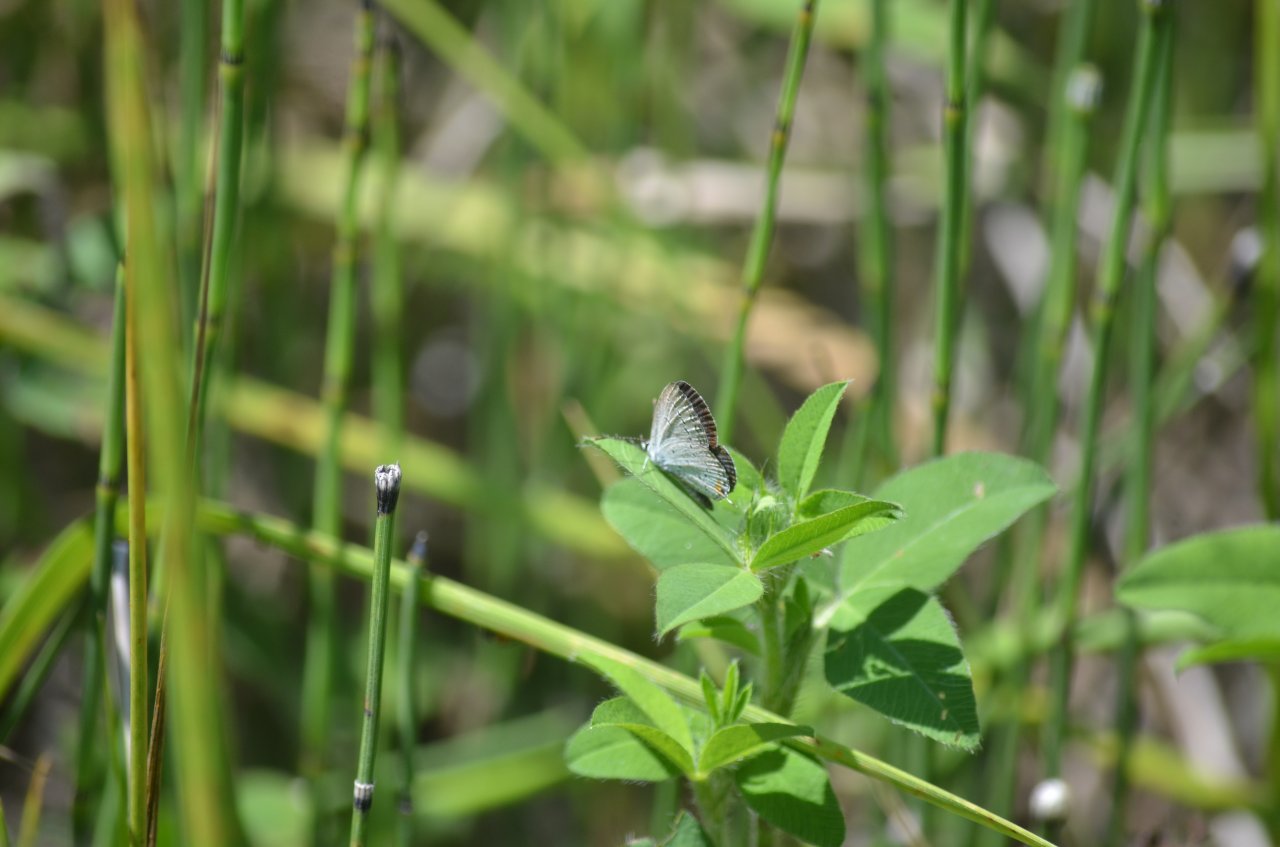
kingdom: Animalia
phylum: Arthropoda
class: Insecta
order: Lepidoptera
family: Lycaenidae
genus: Elkalyce
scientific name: Elkalyce comyntas
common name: Eastern Tailed-Blue
